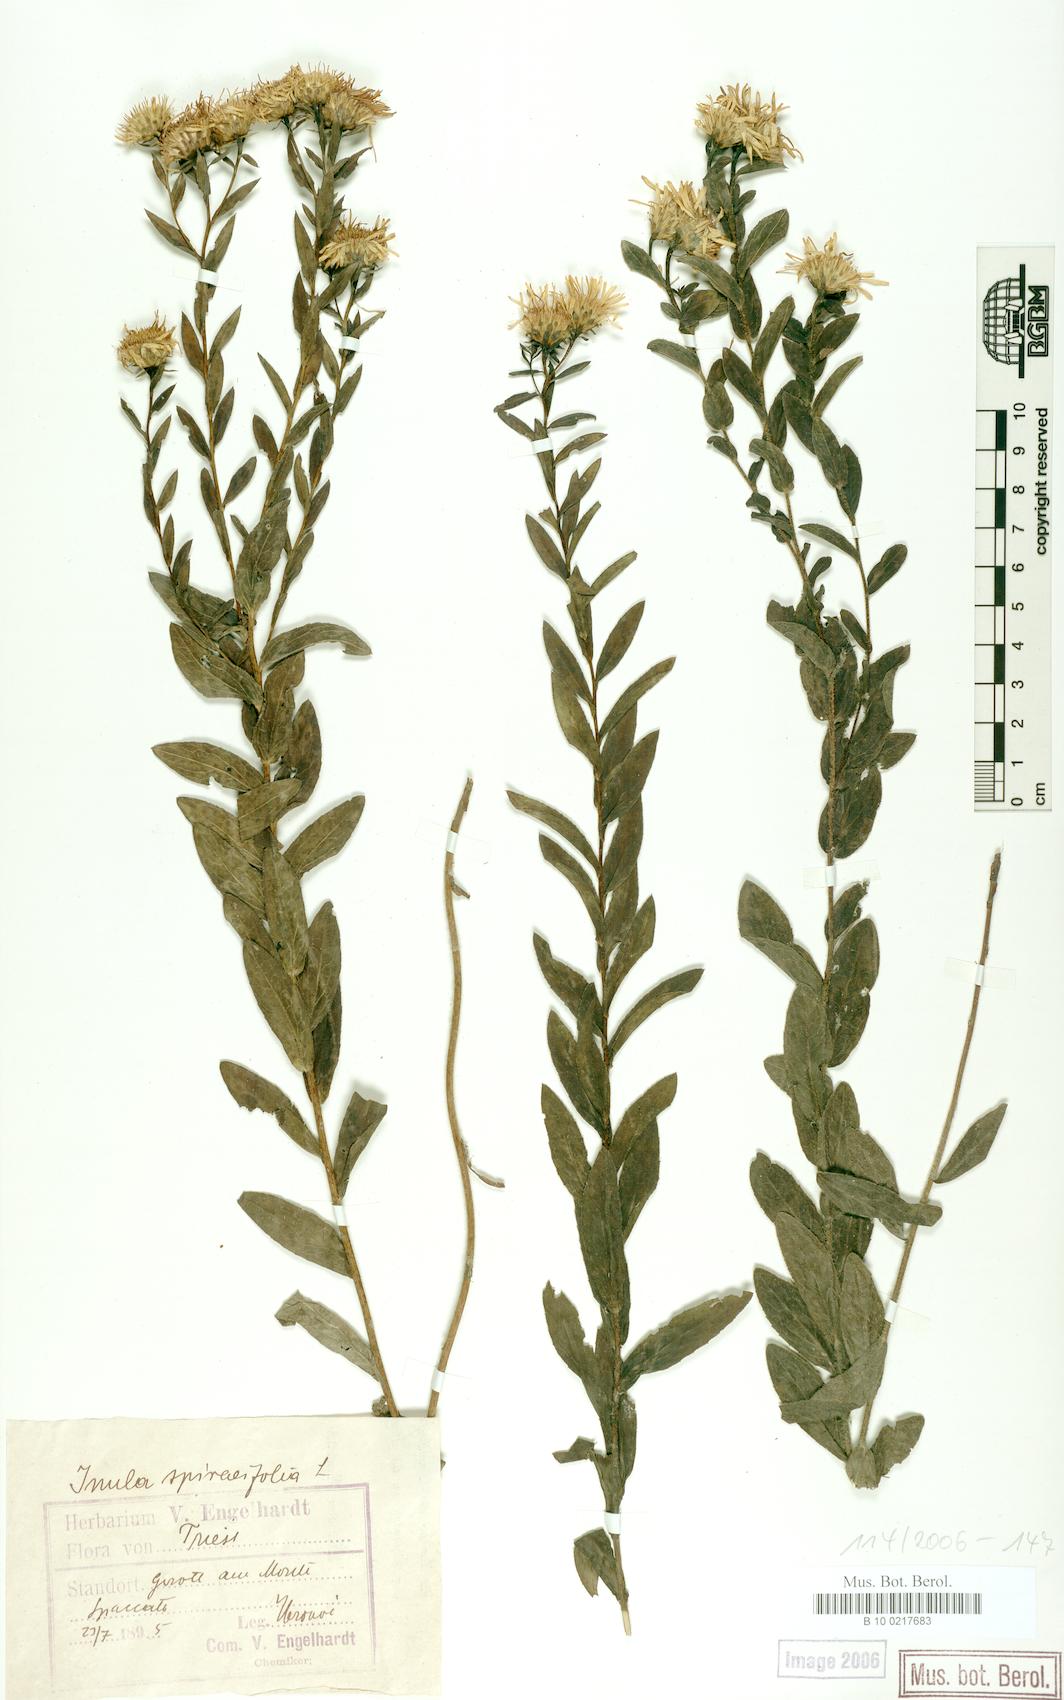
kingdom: Plantae
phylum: Tracheophyta
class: Magnoliopsida
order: Asterales
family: Asteraceae
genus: Pentanema
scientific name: Pentanema spiraeifolium
